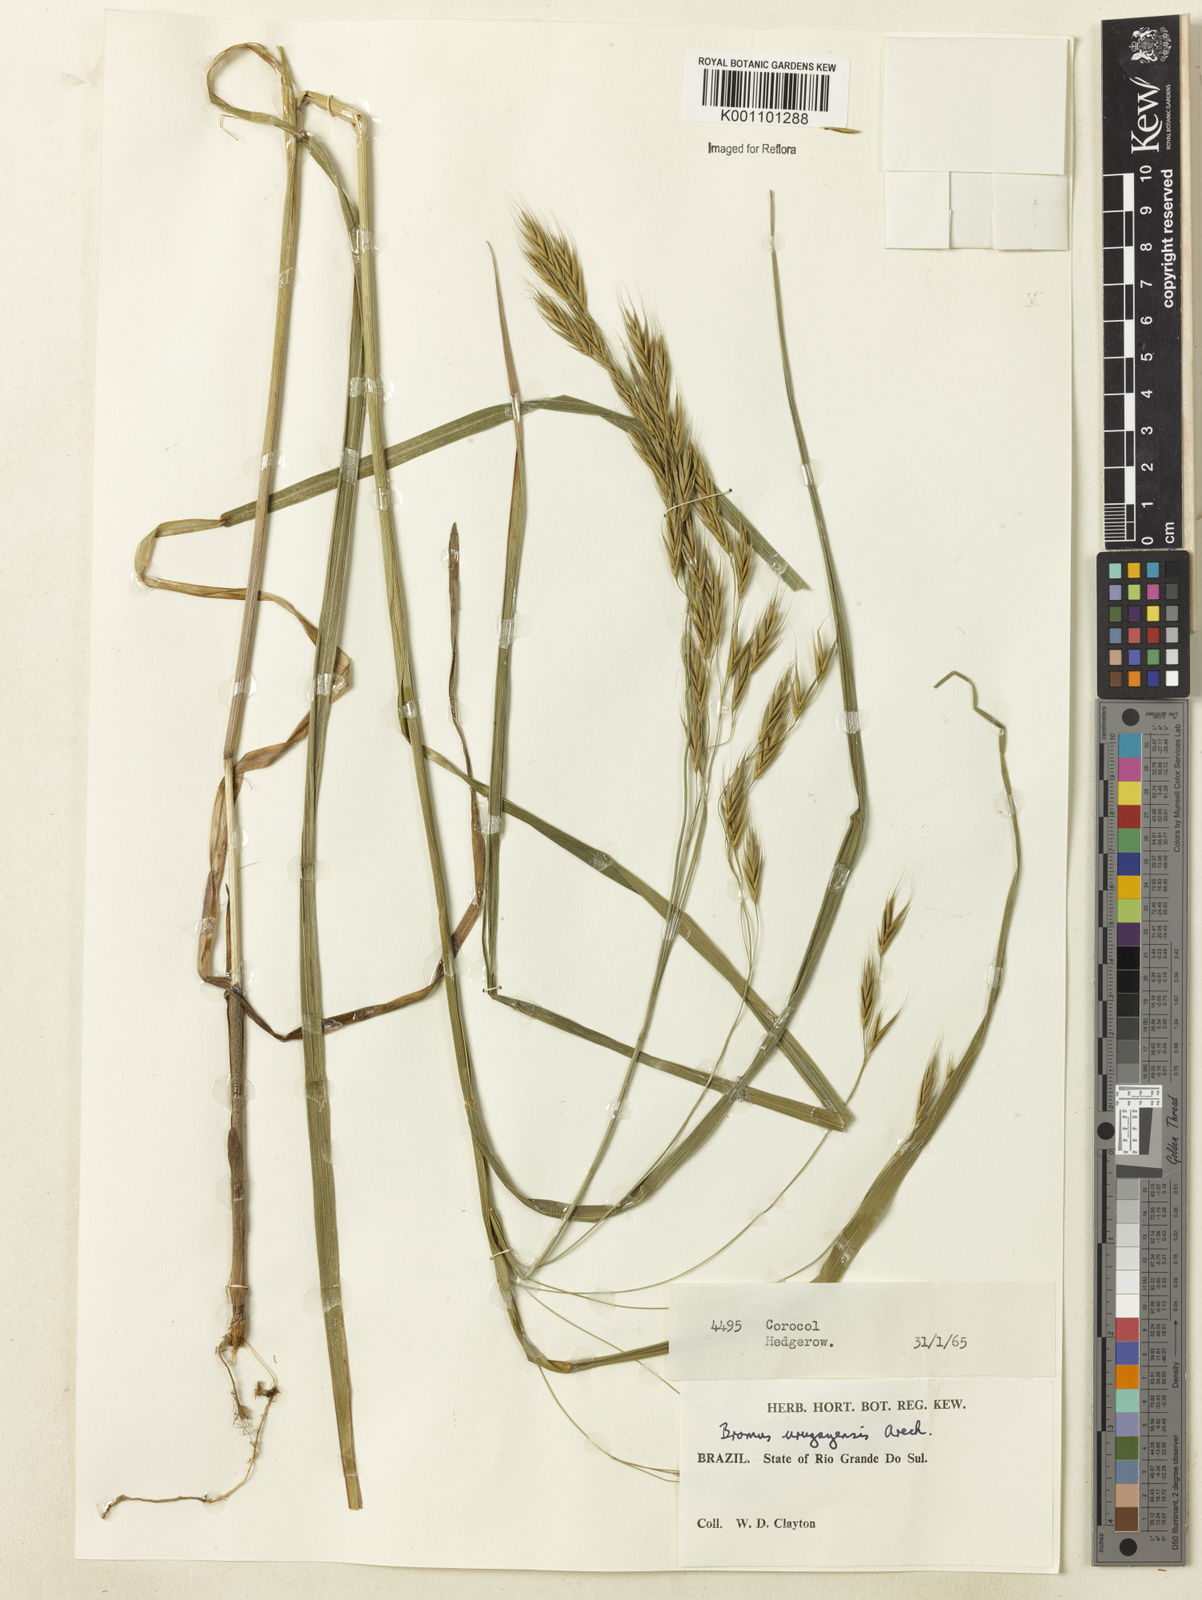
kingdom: Plantae
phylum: Tracheophyta
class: Liliopsida
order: Poales
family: Poaceae
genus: Bromus
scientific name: Bromus
